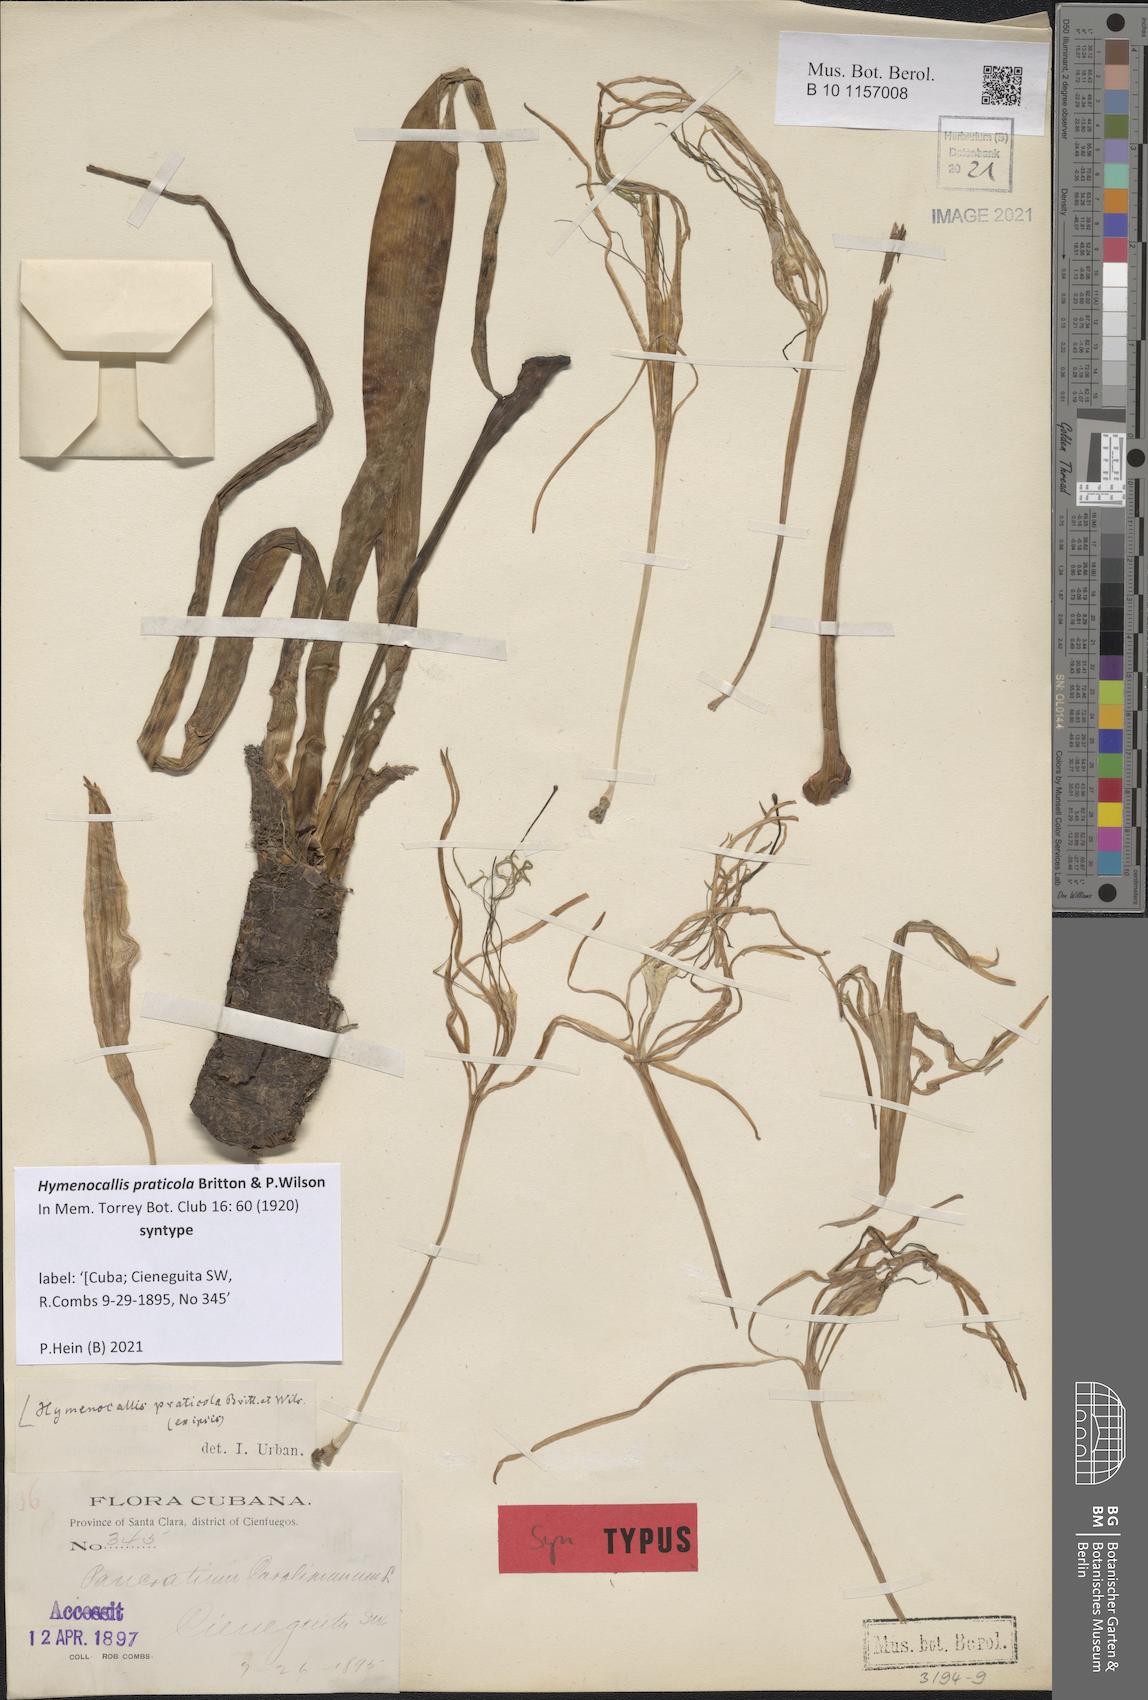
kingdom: Plantae
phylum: Tracheophyta
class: Liliopsida
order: Asparagales
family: Amaryllidaceae
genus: Hymenocallis
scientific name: Hymenocallis praticola
